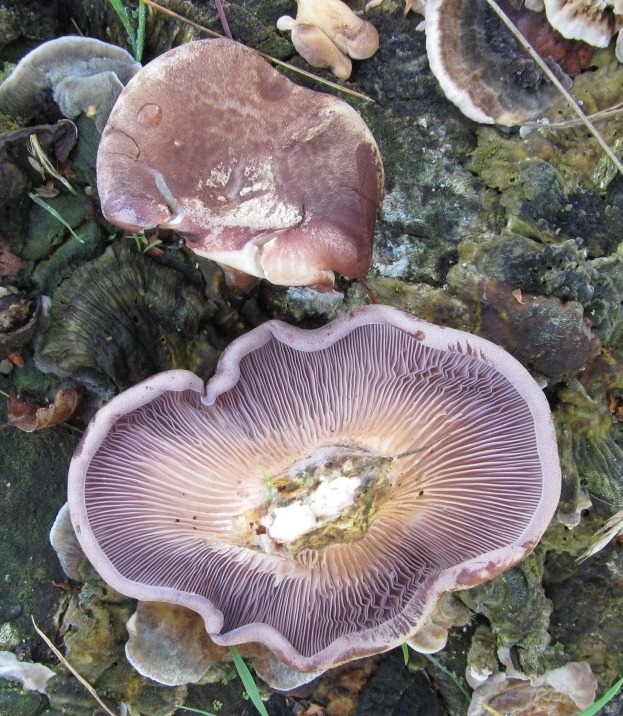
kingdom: Fungi
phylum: Basidiomycota
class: Agaricomycetes
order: Polyporales
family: Panaceae
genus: Panus
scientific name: Panus conchatus
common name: filtstokket læderhat
